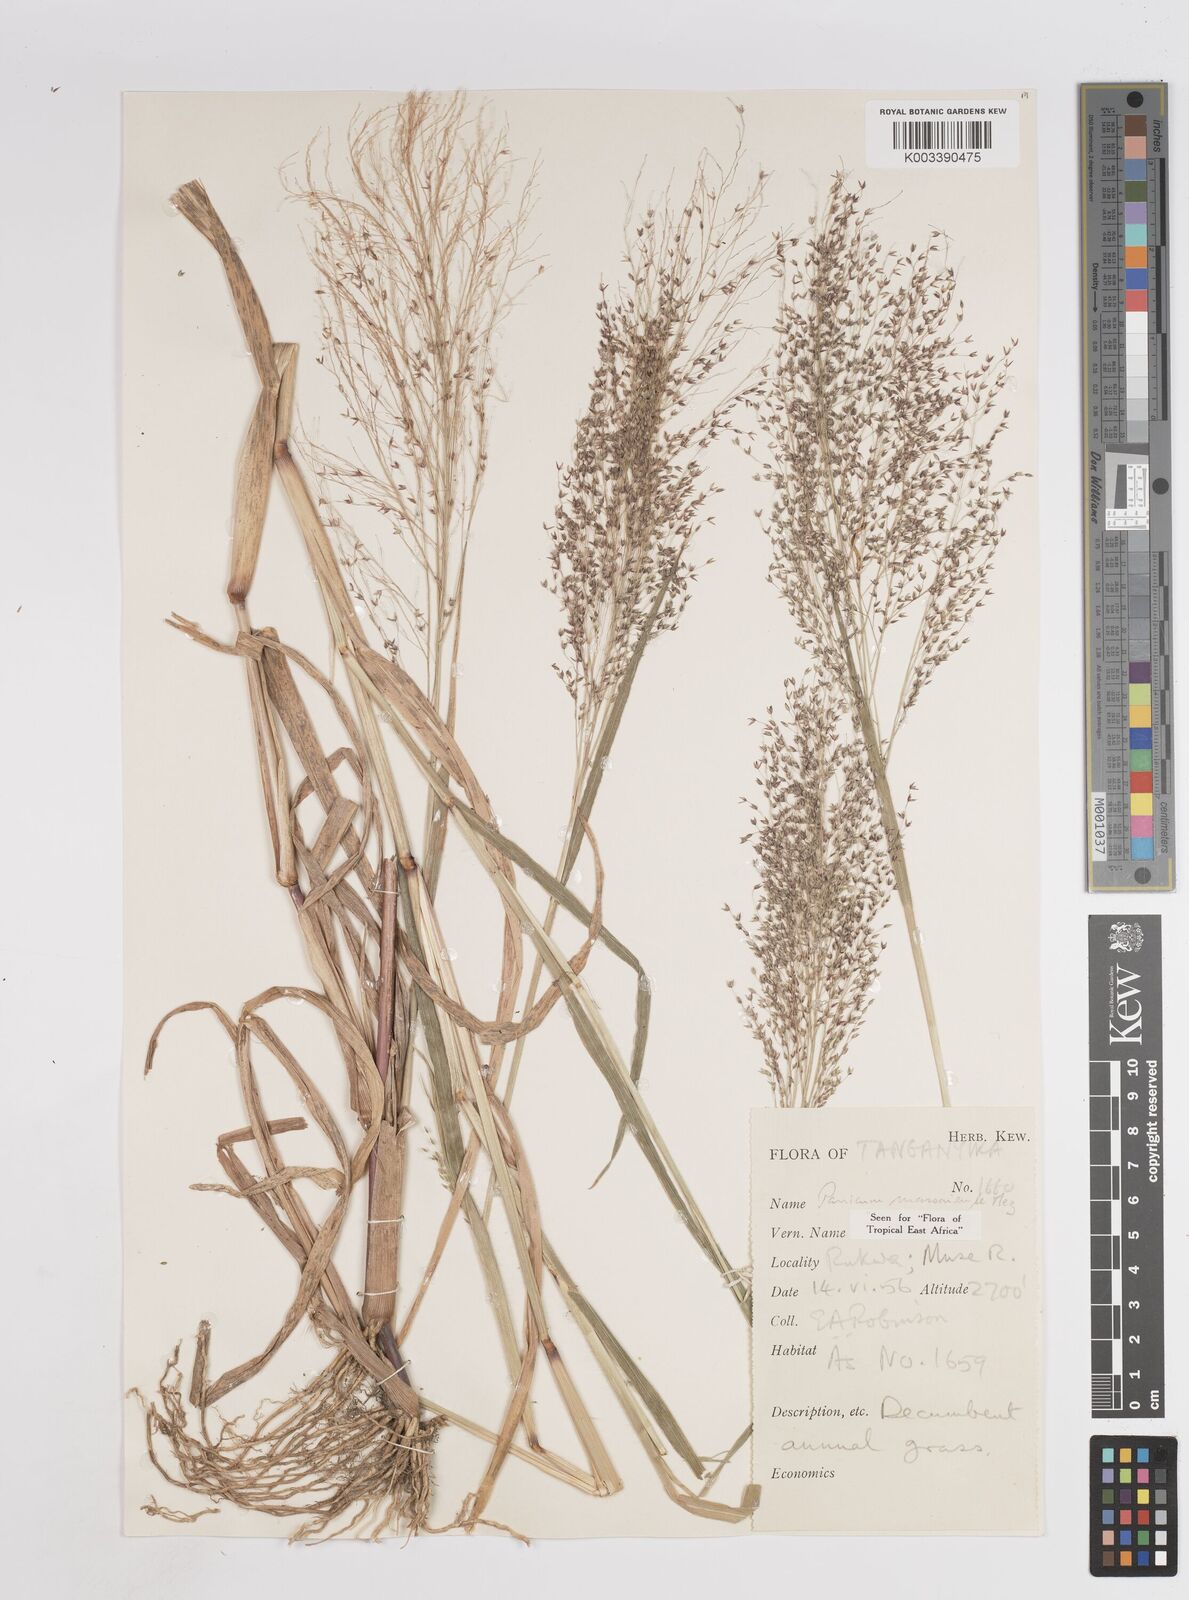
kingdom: Plantae
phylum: Tracheophyta
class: Liliopsida
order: Poales
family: Poaceae
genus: Panicum
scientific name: Panicum massaiense
